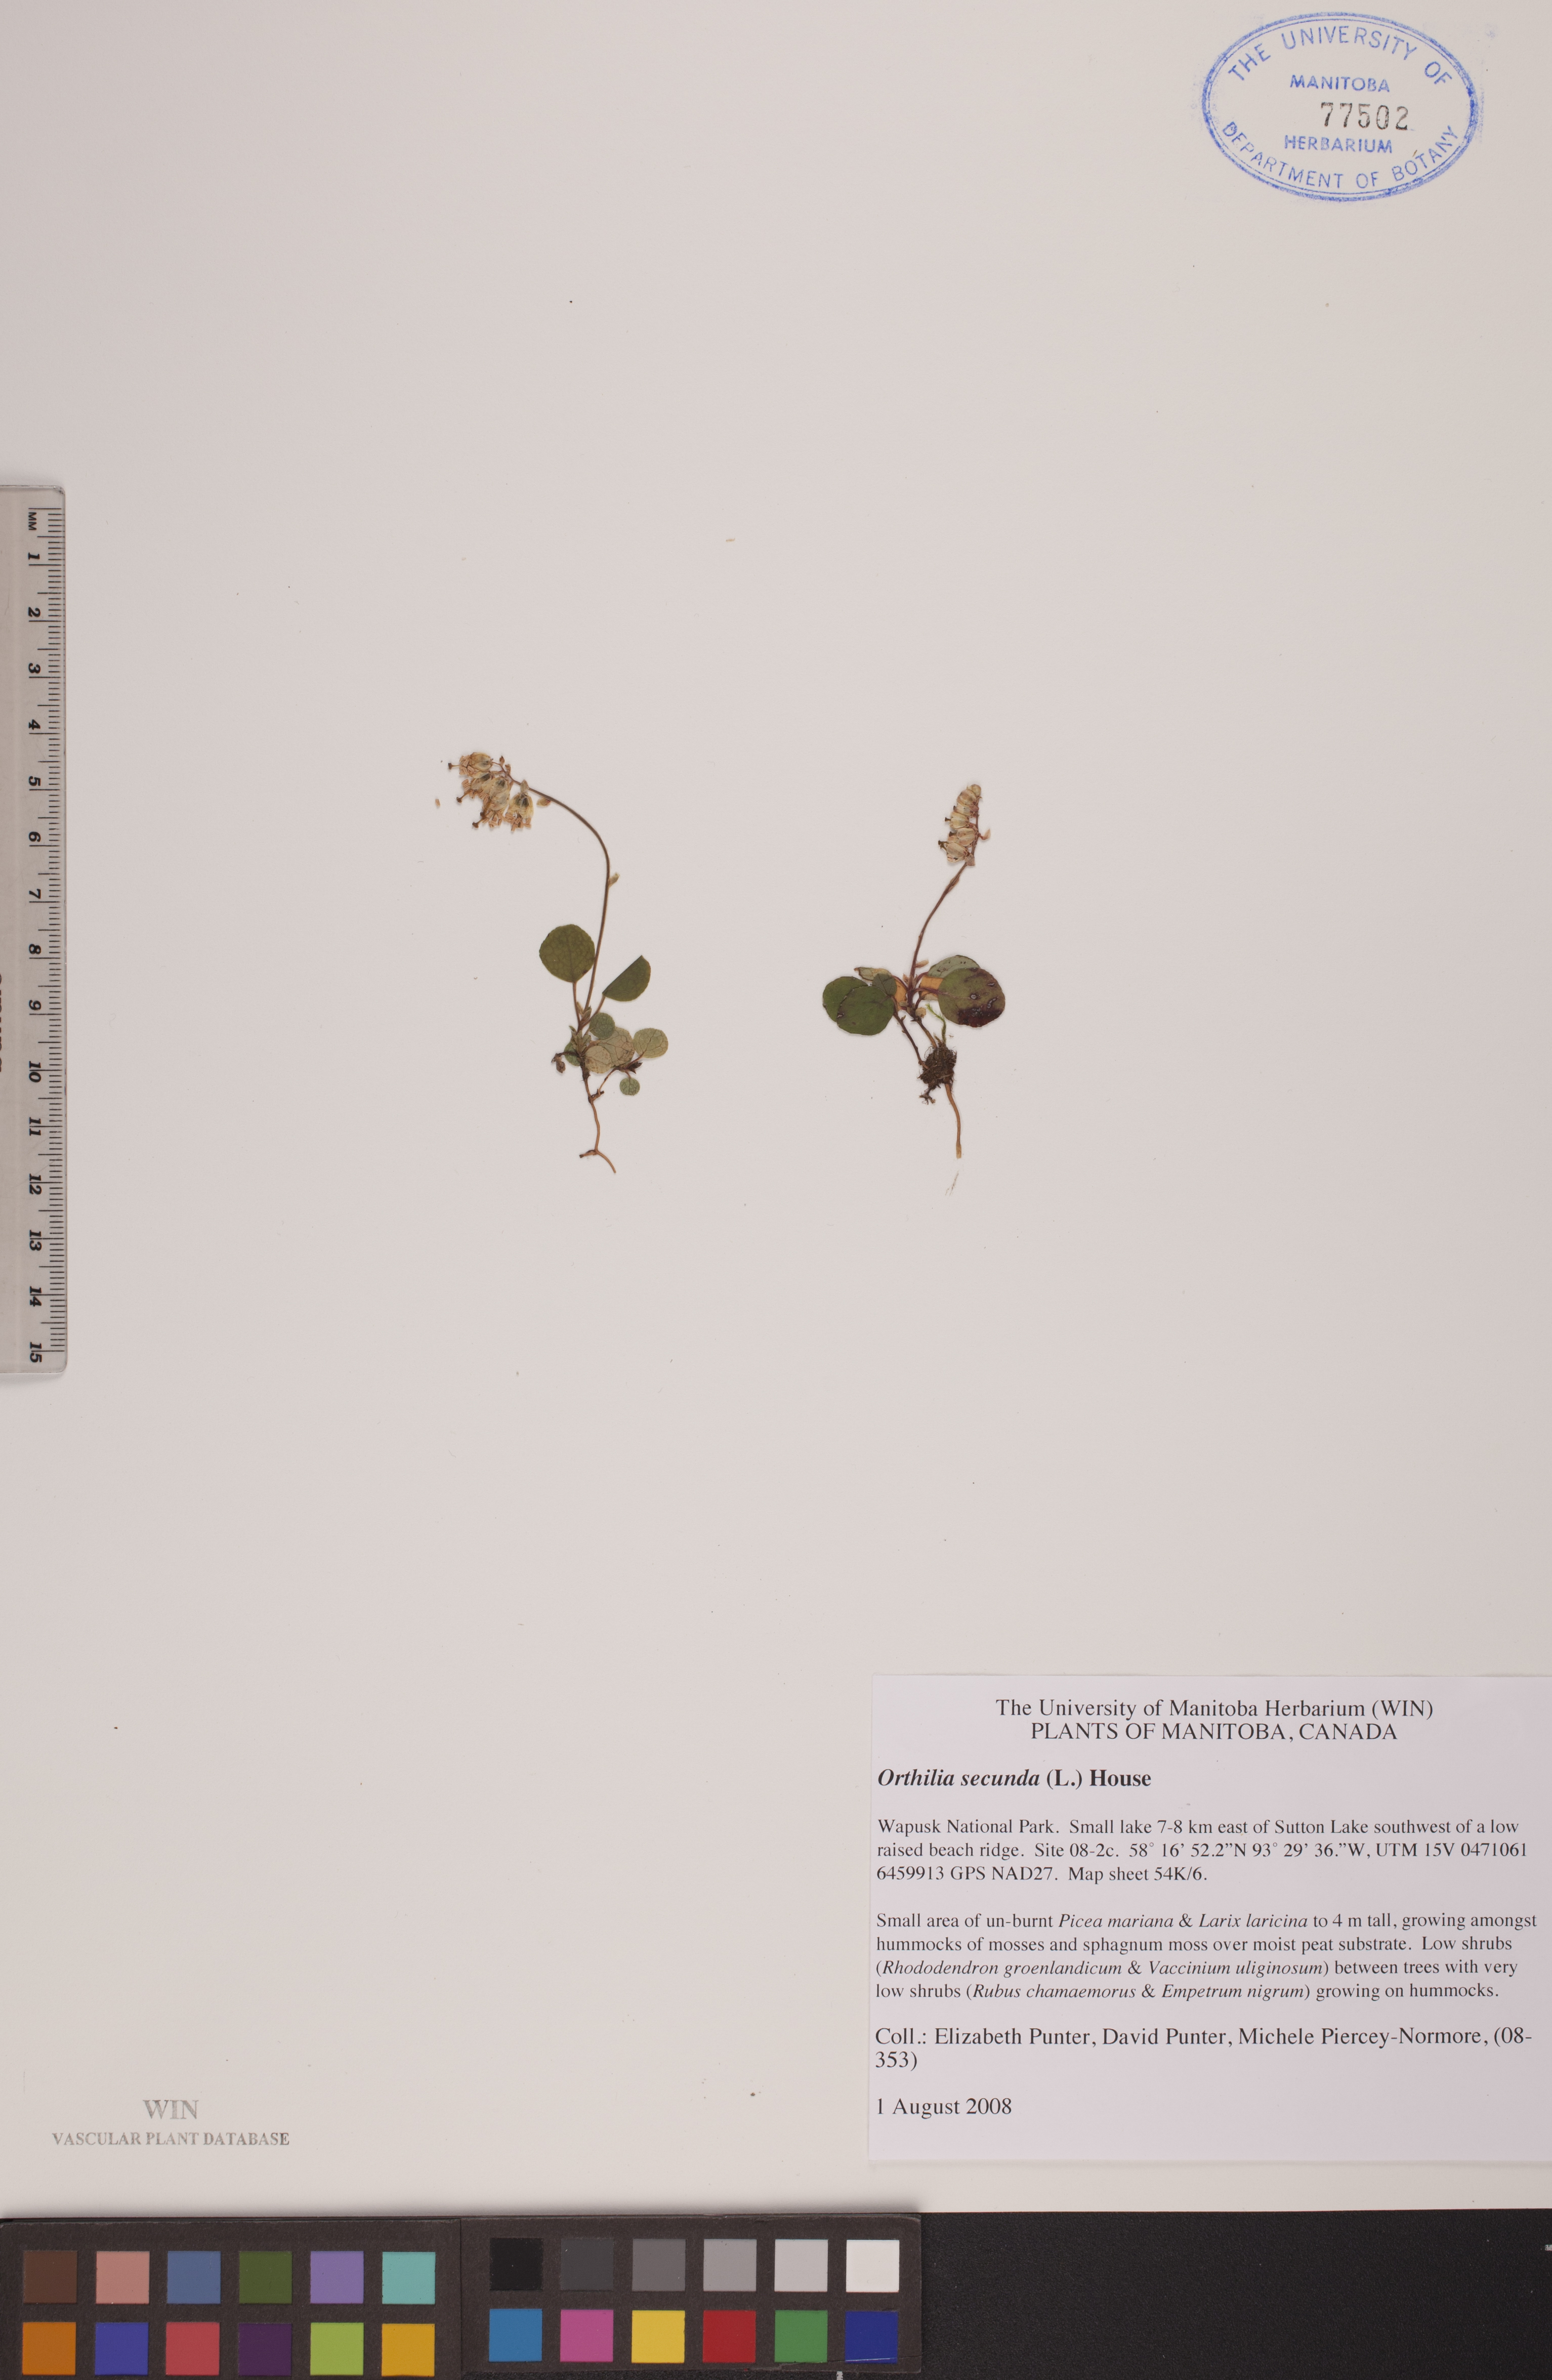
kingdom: Plantae
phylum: Tracheophyta
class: Magnoliopsida
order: Ericales
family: Ericaceae
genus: Orthilia
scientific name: Orthilia secunda
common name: One-sided orthilia
